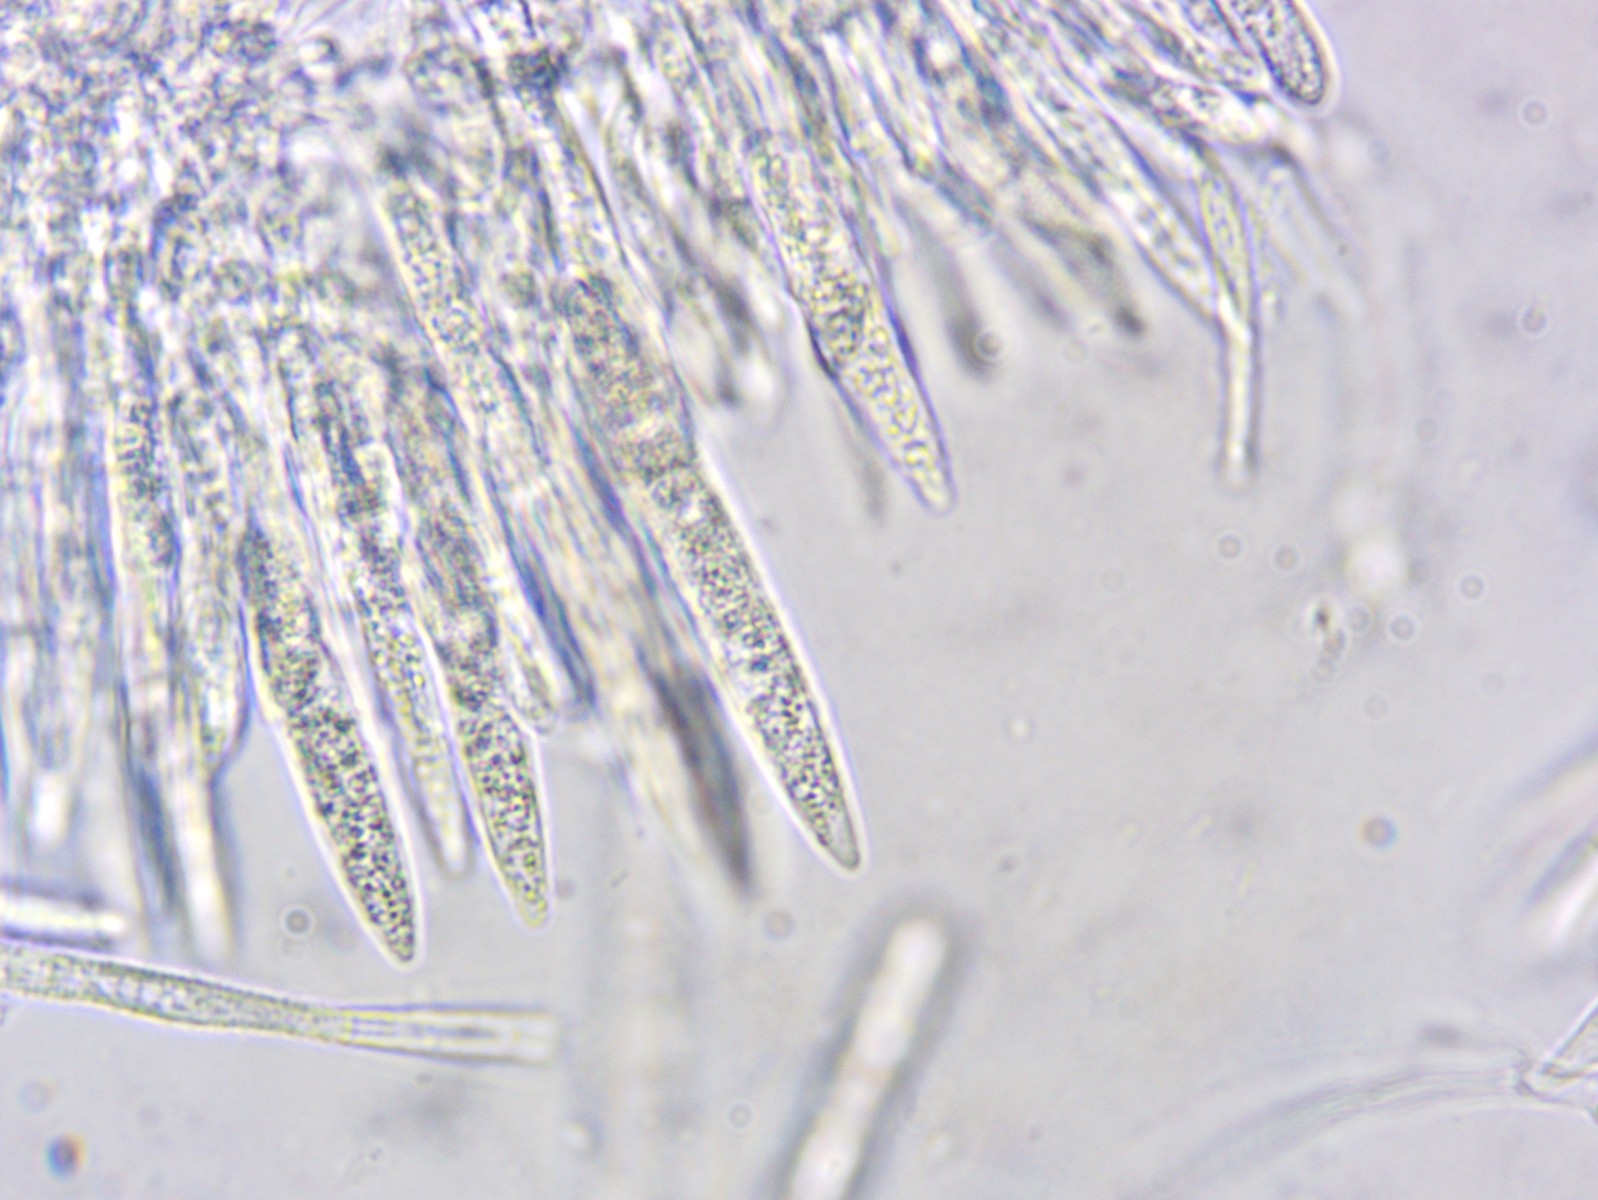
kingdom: Fungi
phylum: Ascomycota
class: Leotiomycetes
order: Helotiales
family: Lachnaceae
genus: Lachnum
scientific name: Lachnum pudibundum
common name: brude-frynseskive
